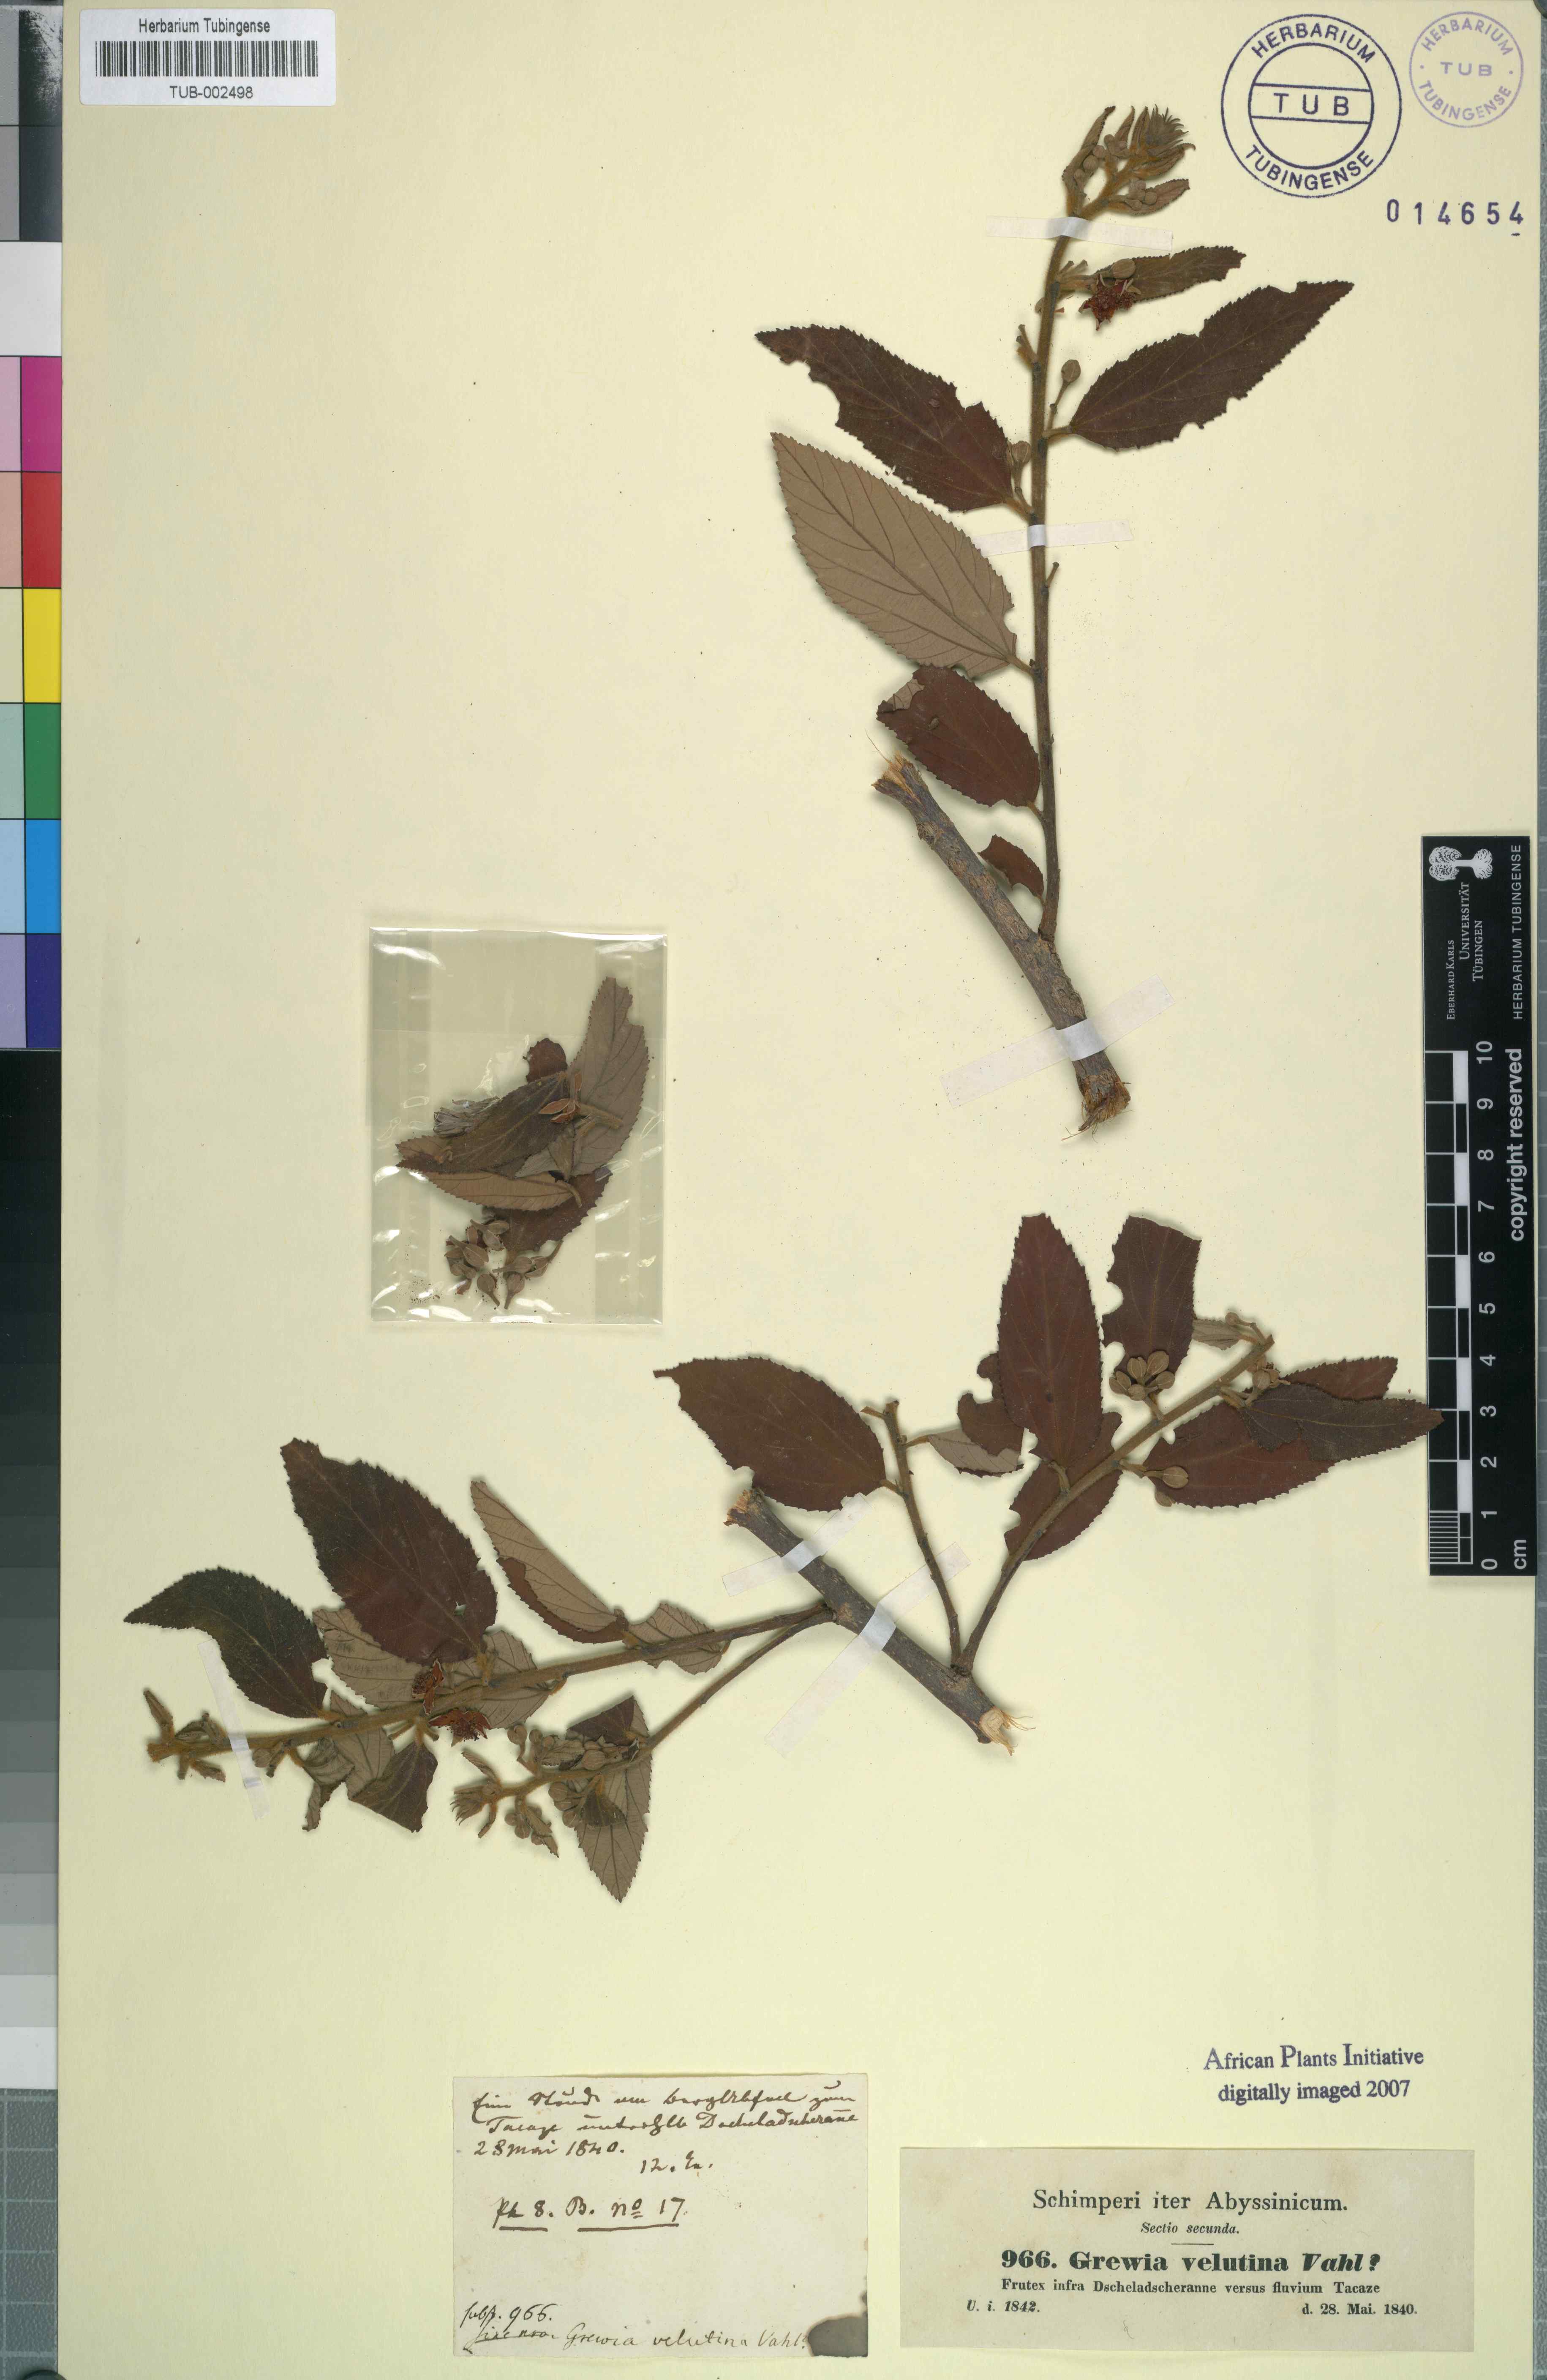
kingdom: Plantae
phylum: Tracheophyta
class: Magnoliopsida
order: Malvales
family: Malvaceae
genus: Grewia
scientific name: Grewia velutina
